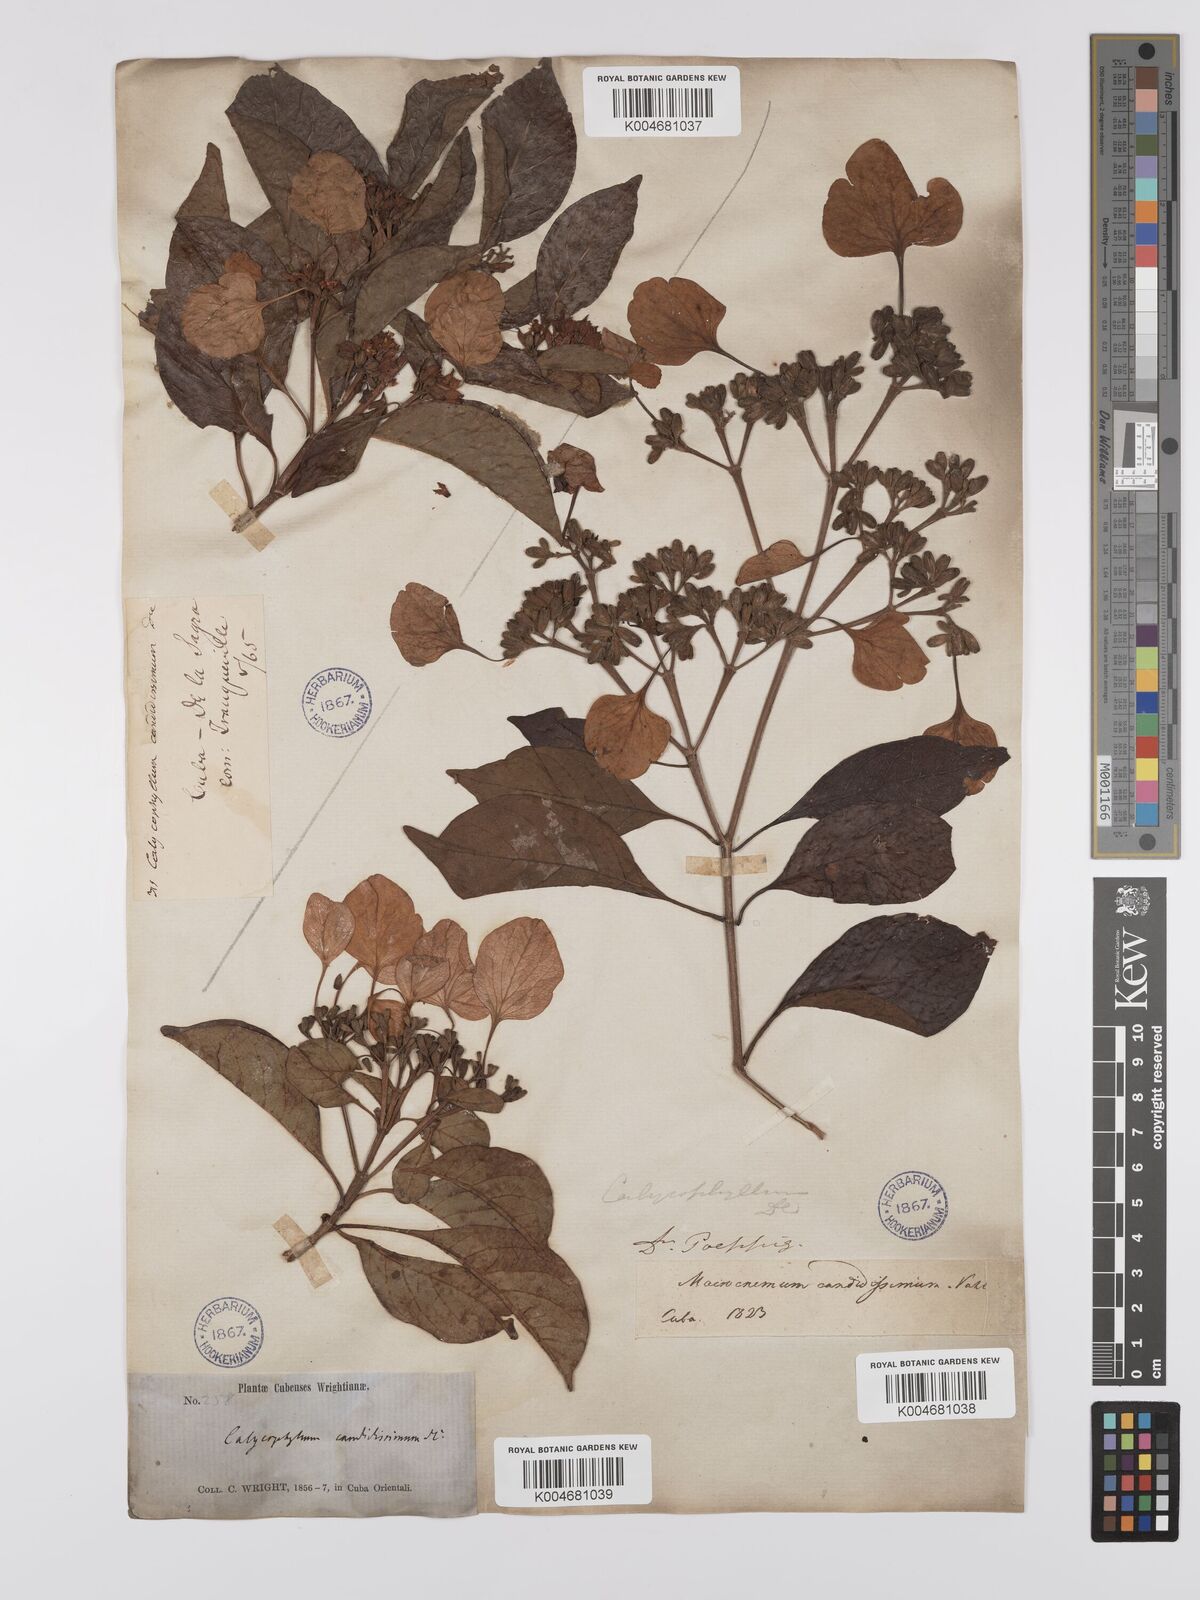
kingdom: Plantae
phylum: Tracheophyta
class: Magnoliopsida
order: Gentianales
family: Rubiaceae
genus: Calycophyllum
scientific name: Calycophyllum candidissimum
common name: Dagame
